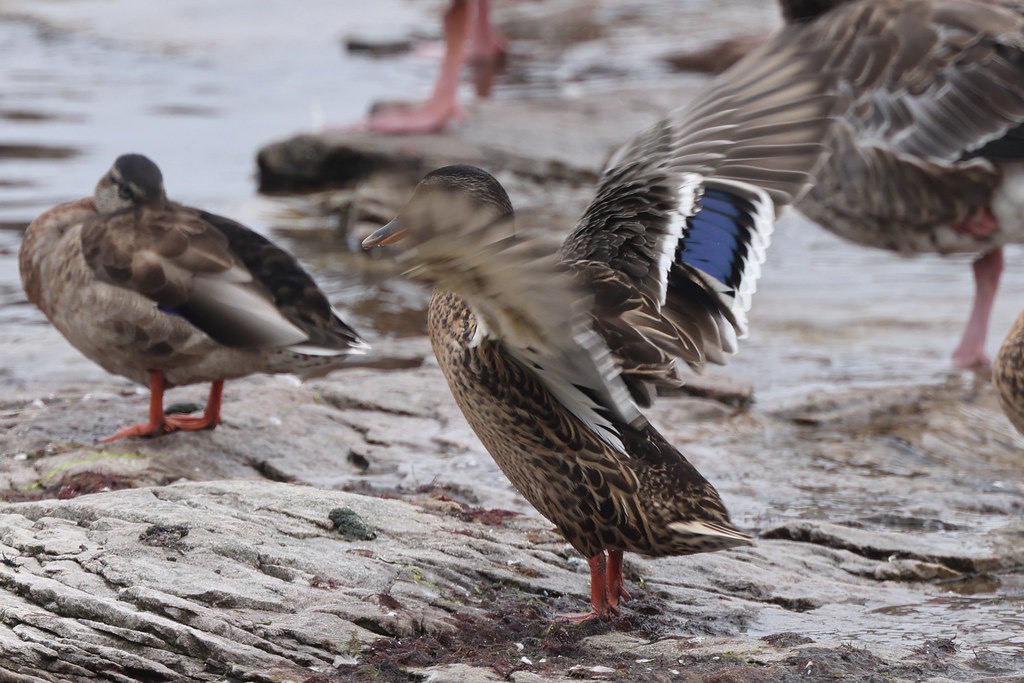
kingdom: Animalia
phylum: Chordata
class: Aves
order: Anseriformes
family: Anatidae
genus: Anas
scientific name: Anas platyrhynchos
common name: Gråand
